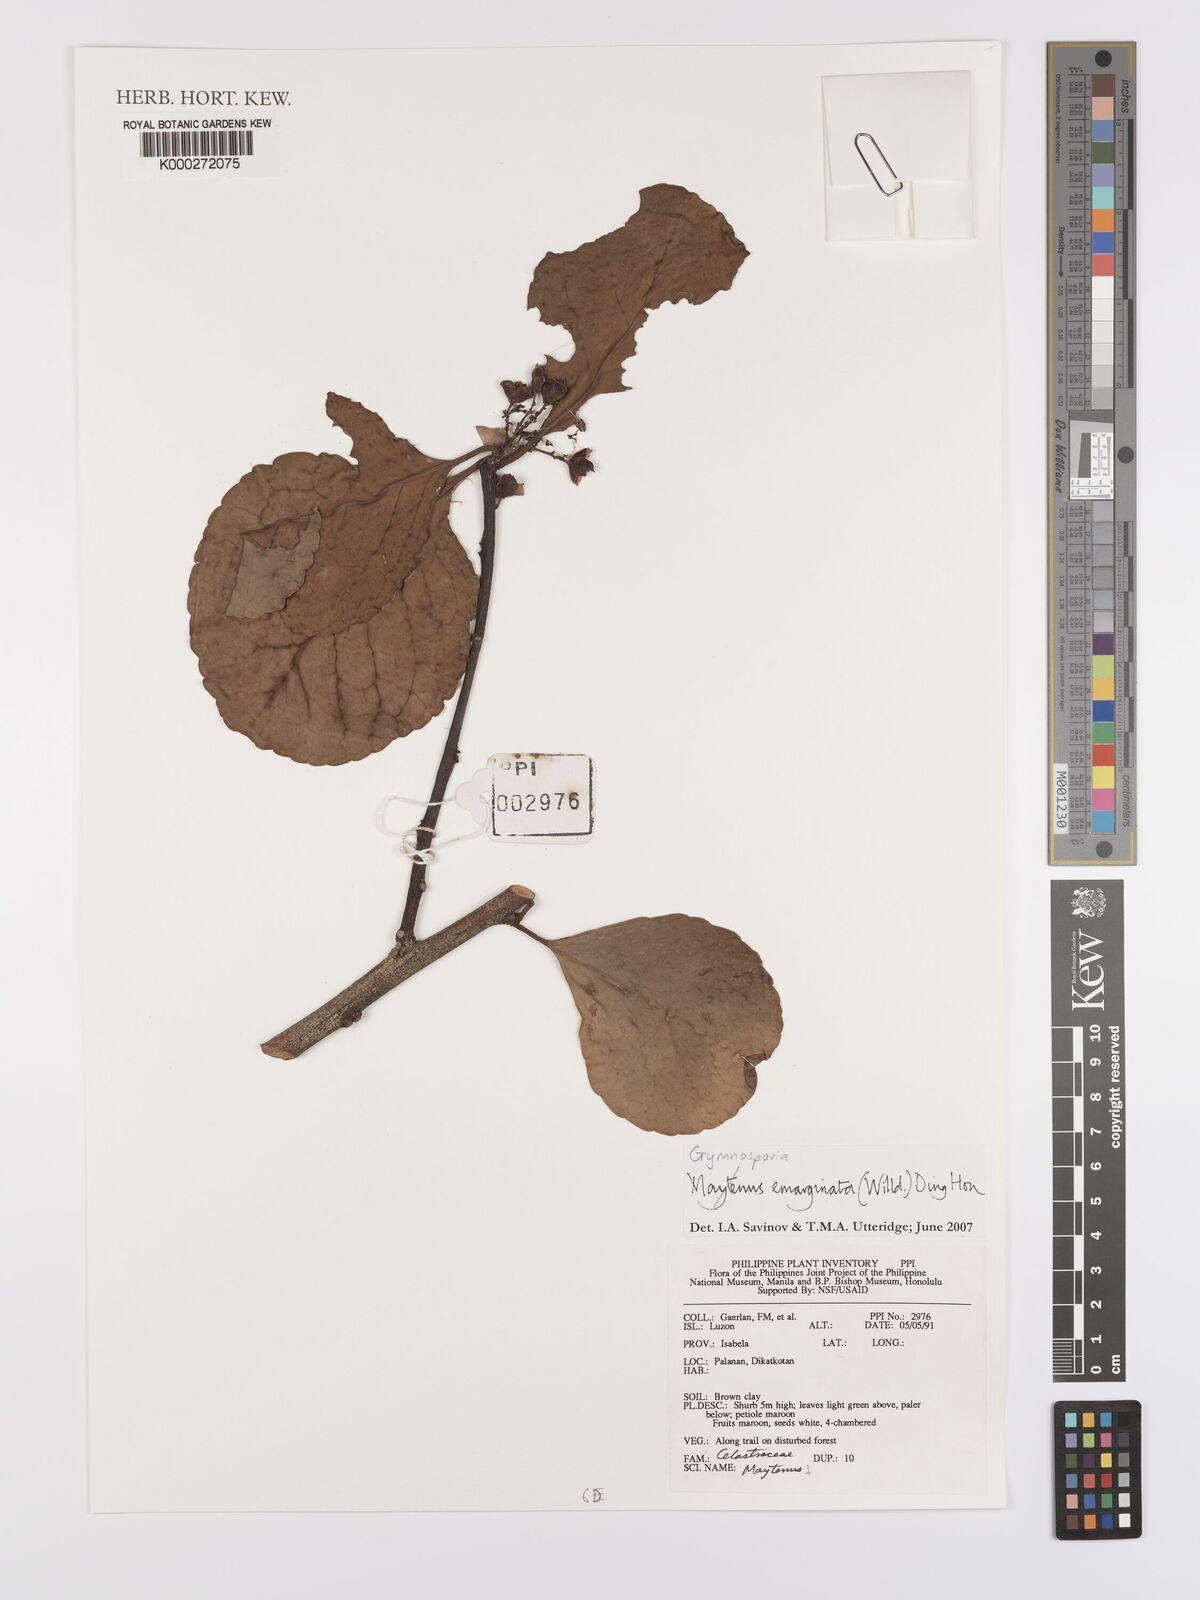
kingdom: Plantae
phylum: Tracheophyta
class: Magnoliopsida
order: Celastrales
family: Celastraceae
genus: Gymnosporia
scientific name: Gymnosporia emarginata
